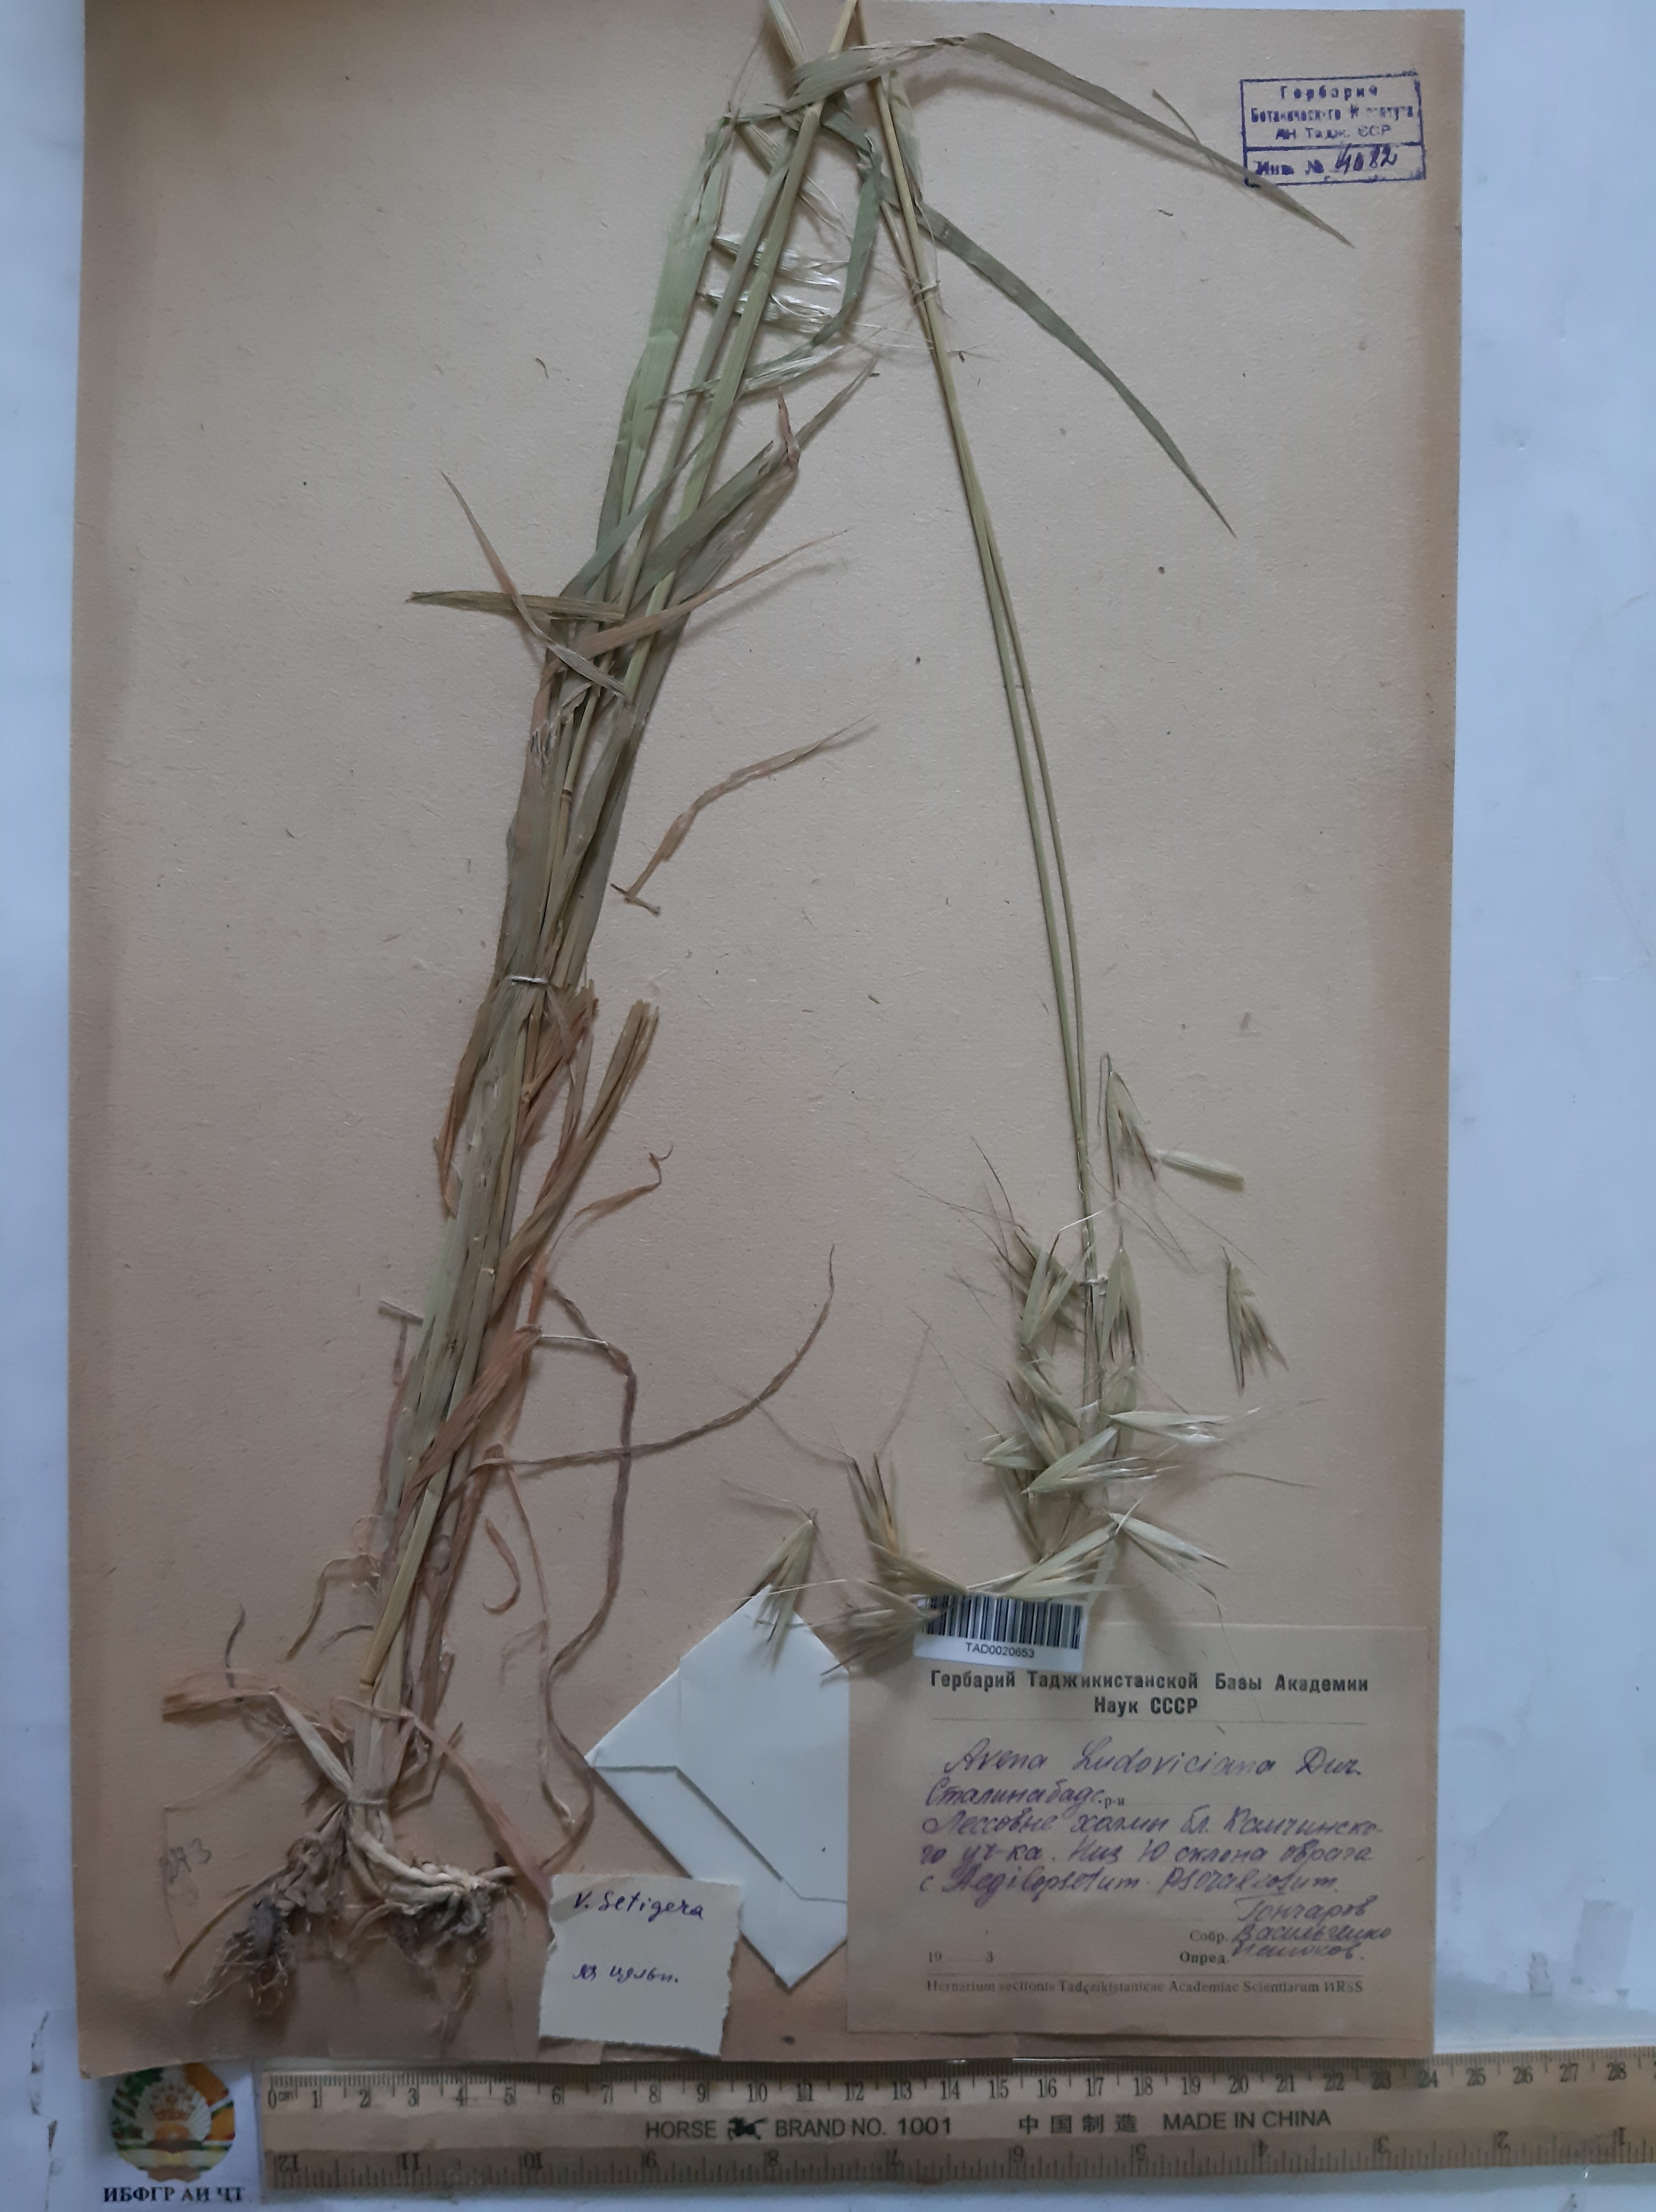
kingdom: Plantae
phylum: Tracheophyta
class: Liliopsida
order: Poales
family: Poaceae
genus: Avena
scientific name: Avena sterilis
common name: Animated oat
